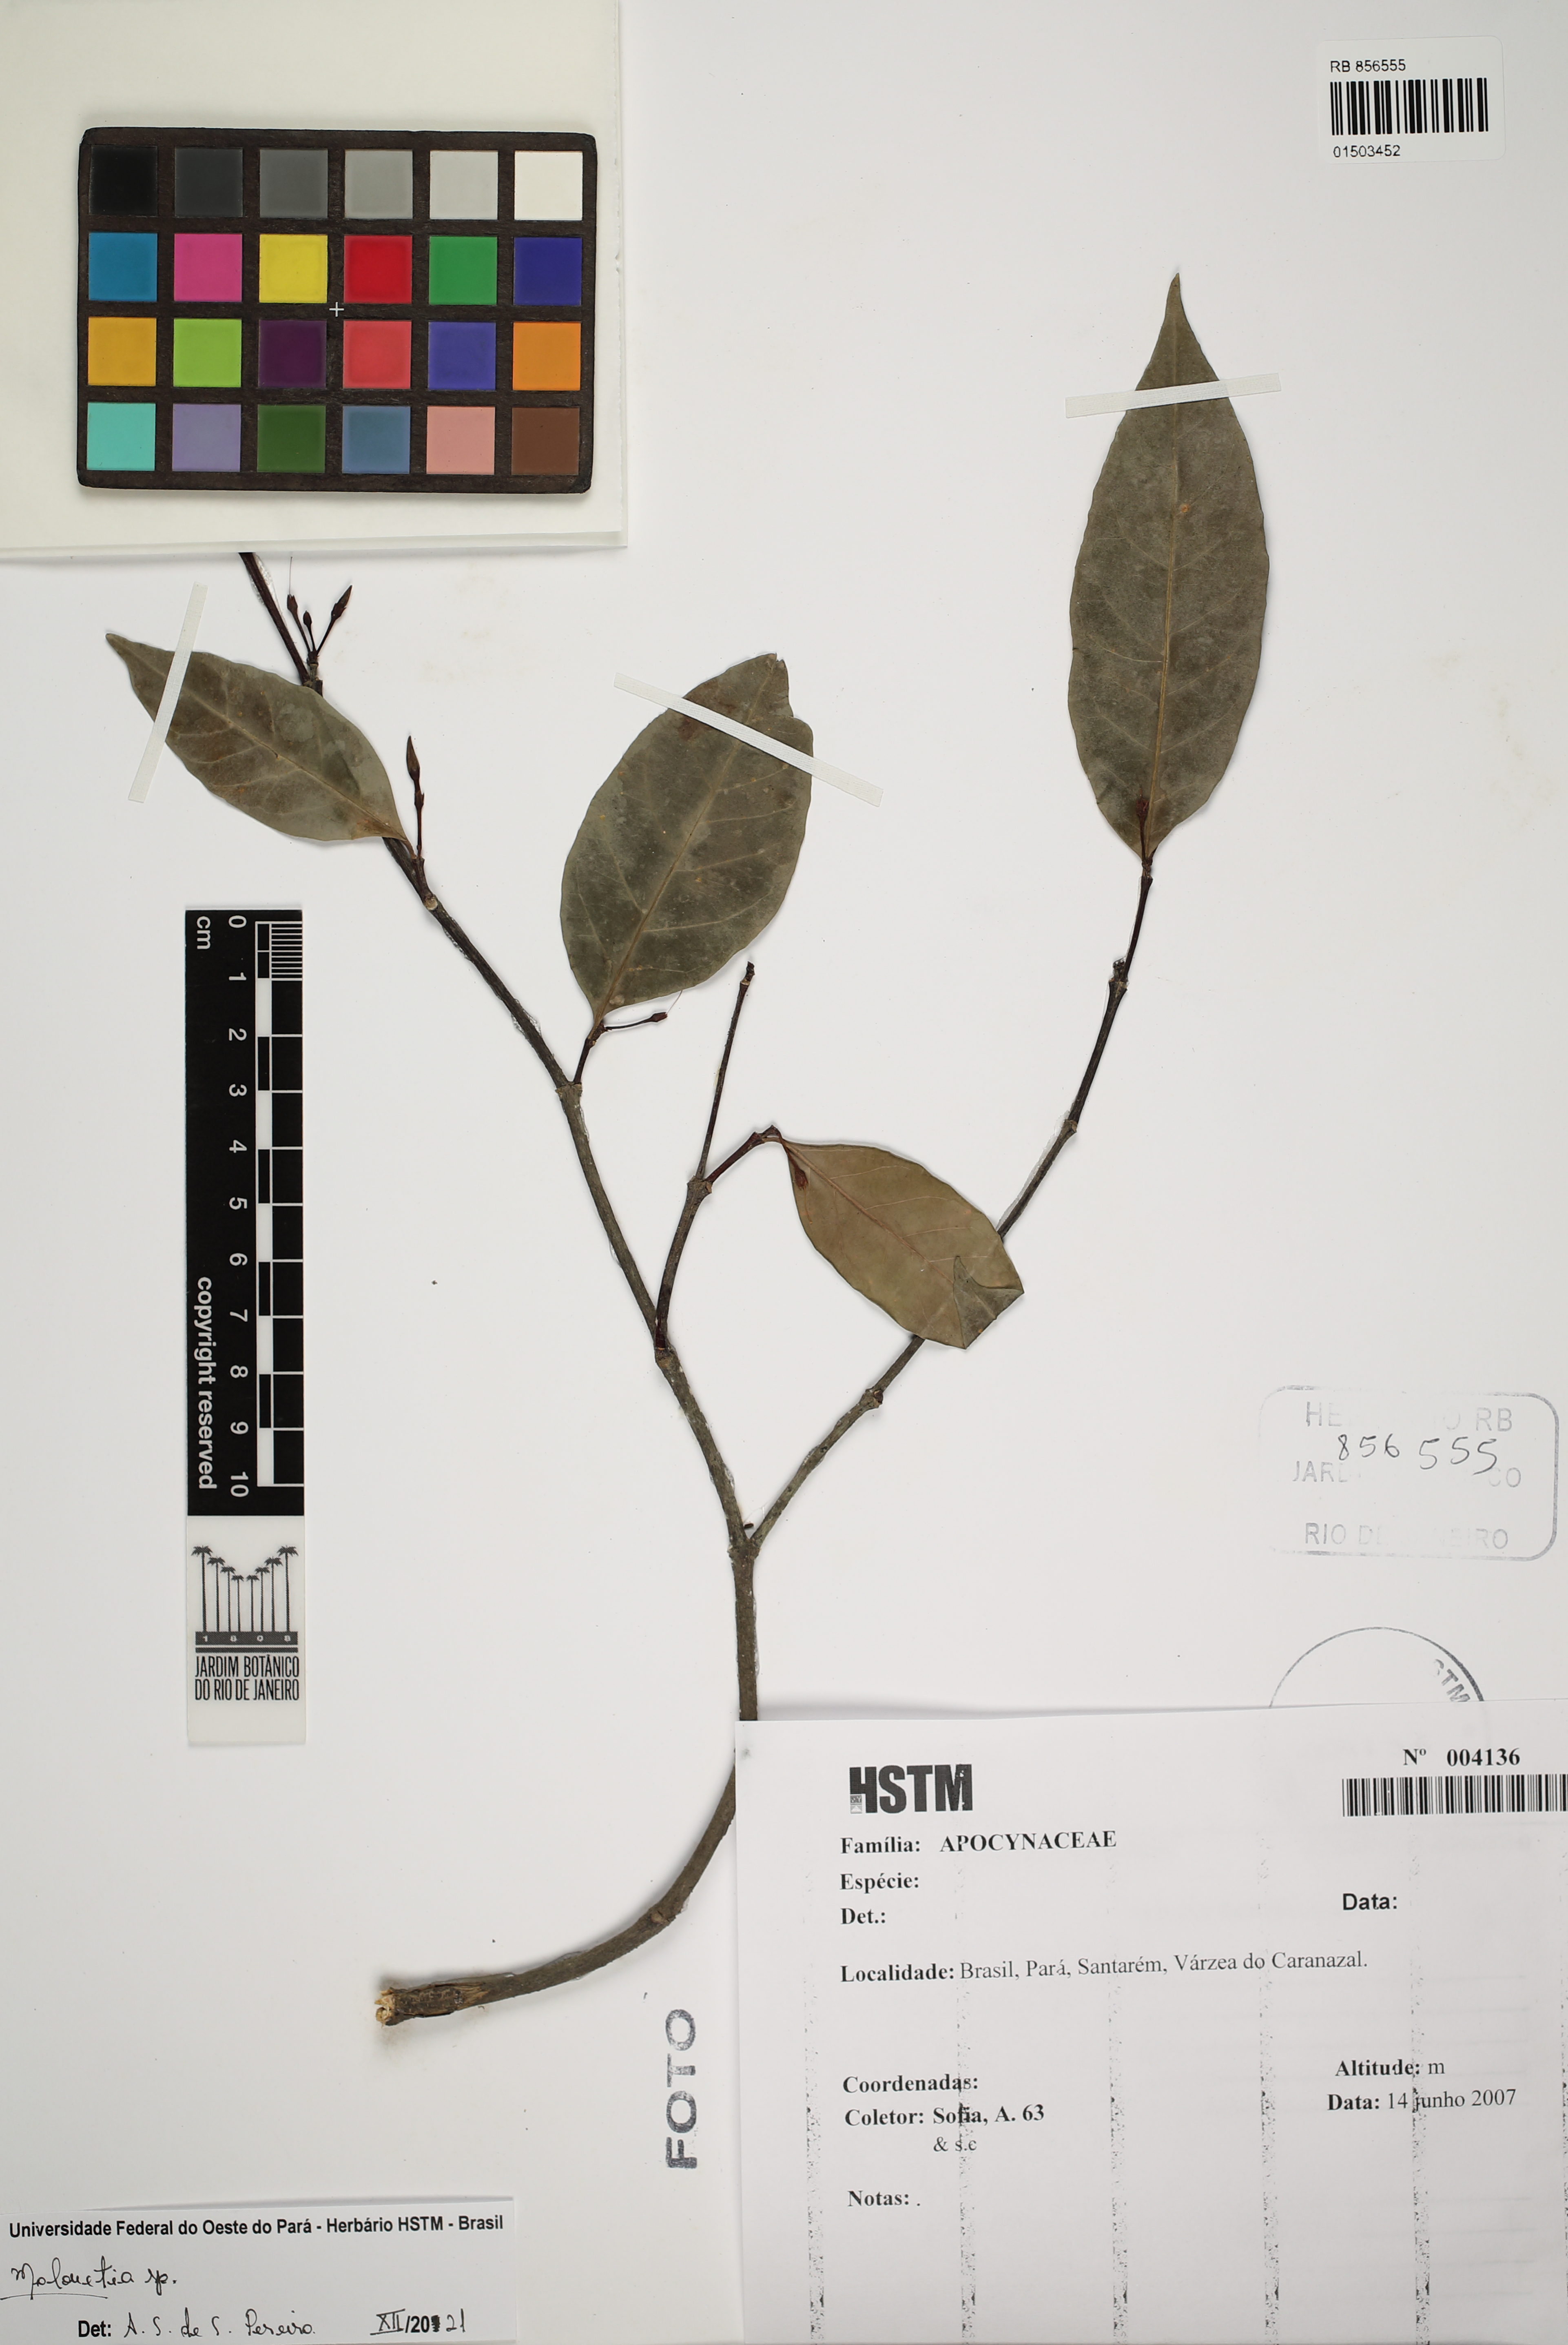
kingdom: Plantae
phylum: Tracheophyta
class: Magnoliopsida
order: Gentianales
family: Apocynaceae
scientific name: Apocynaceae
